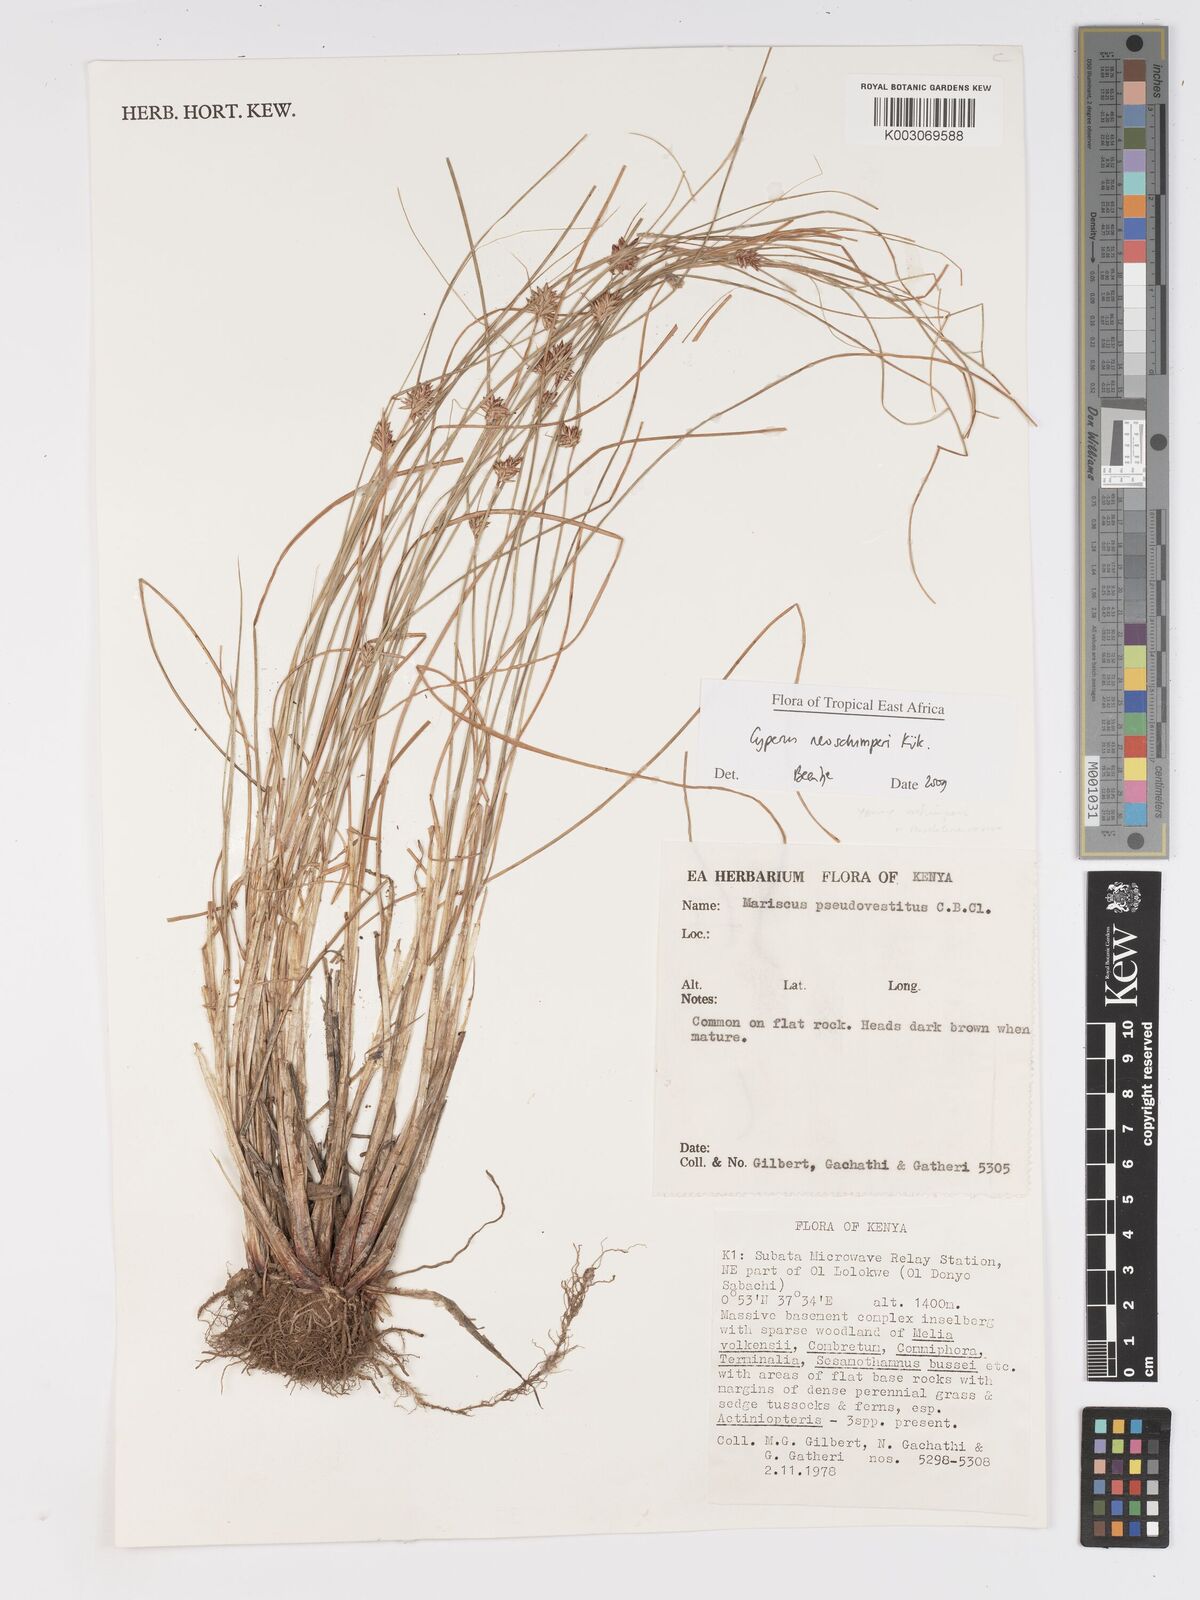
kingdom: Plantae
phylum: Tracheophyta
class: Liliopsida
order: Poales
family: Cyperaceae
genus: Cyperus
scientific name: Cyperus cruentus
